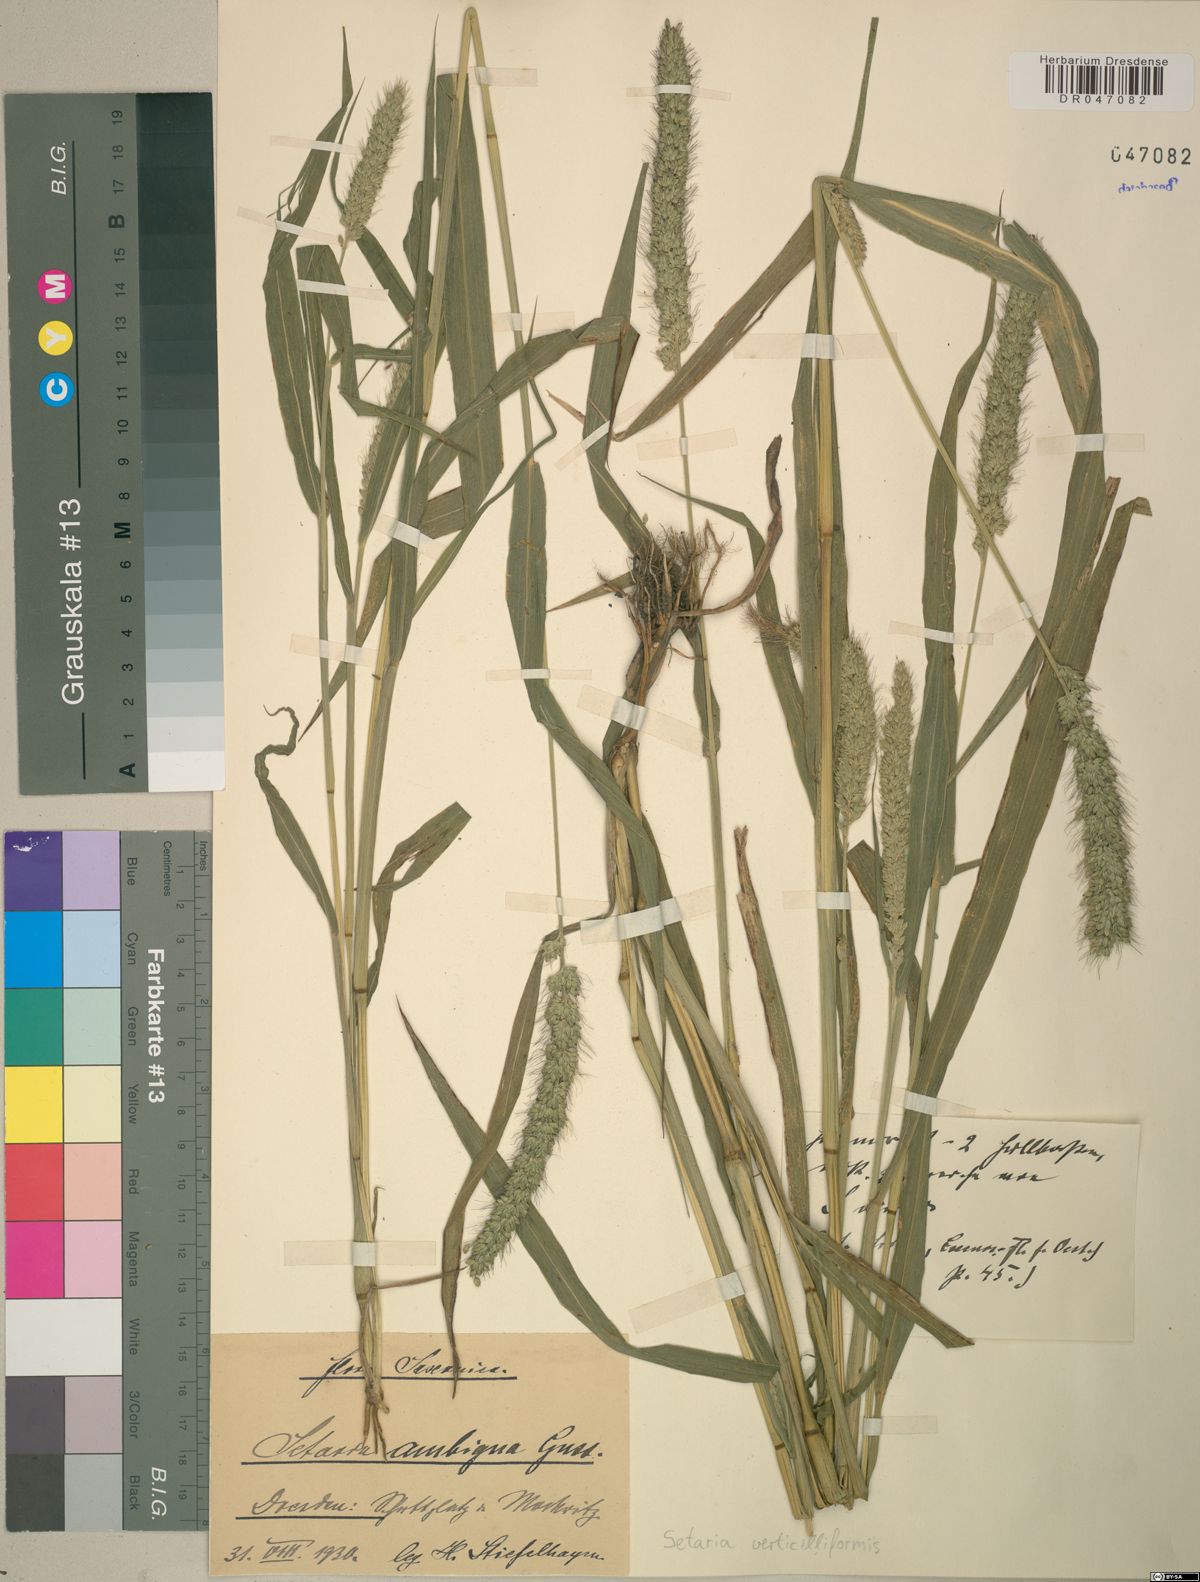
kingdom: Plantae
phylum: Tracheophyta
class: Liliopsida
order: Poales
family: Poaceae
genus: Setaria
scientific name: Setaria verticillata
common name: Hooked bristlegrass
